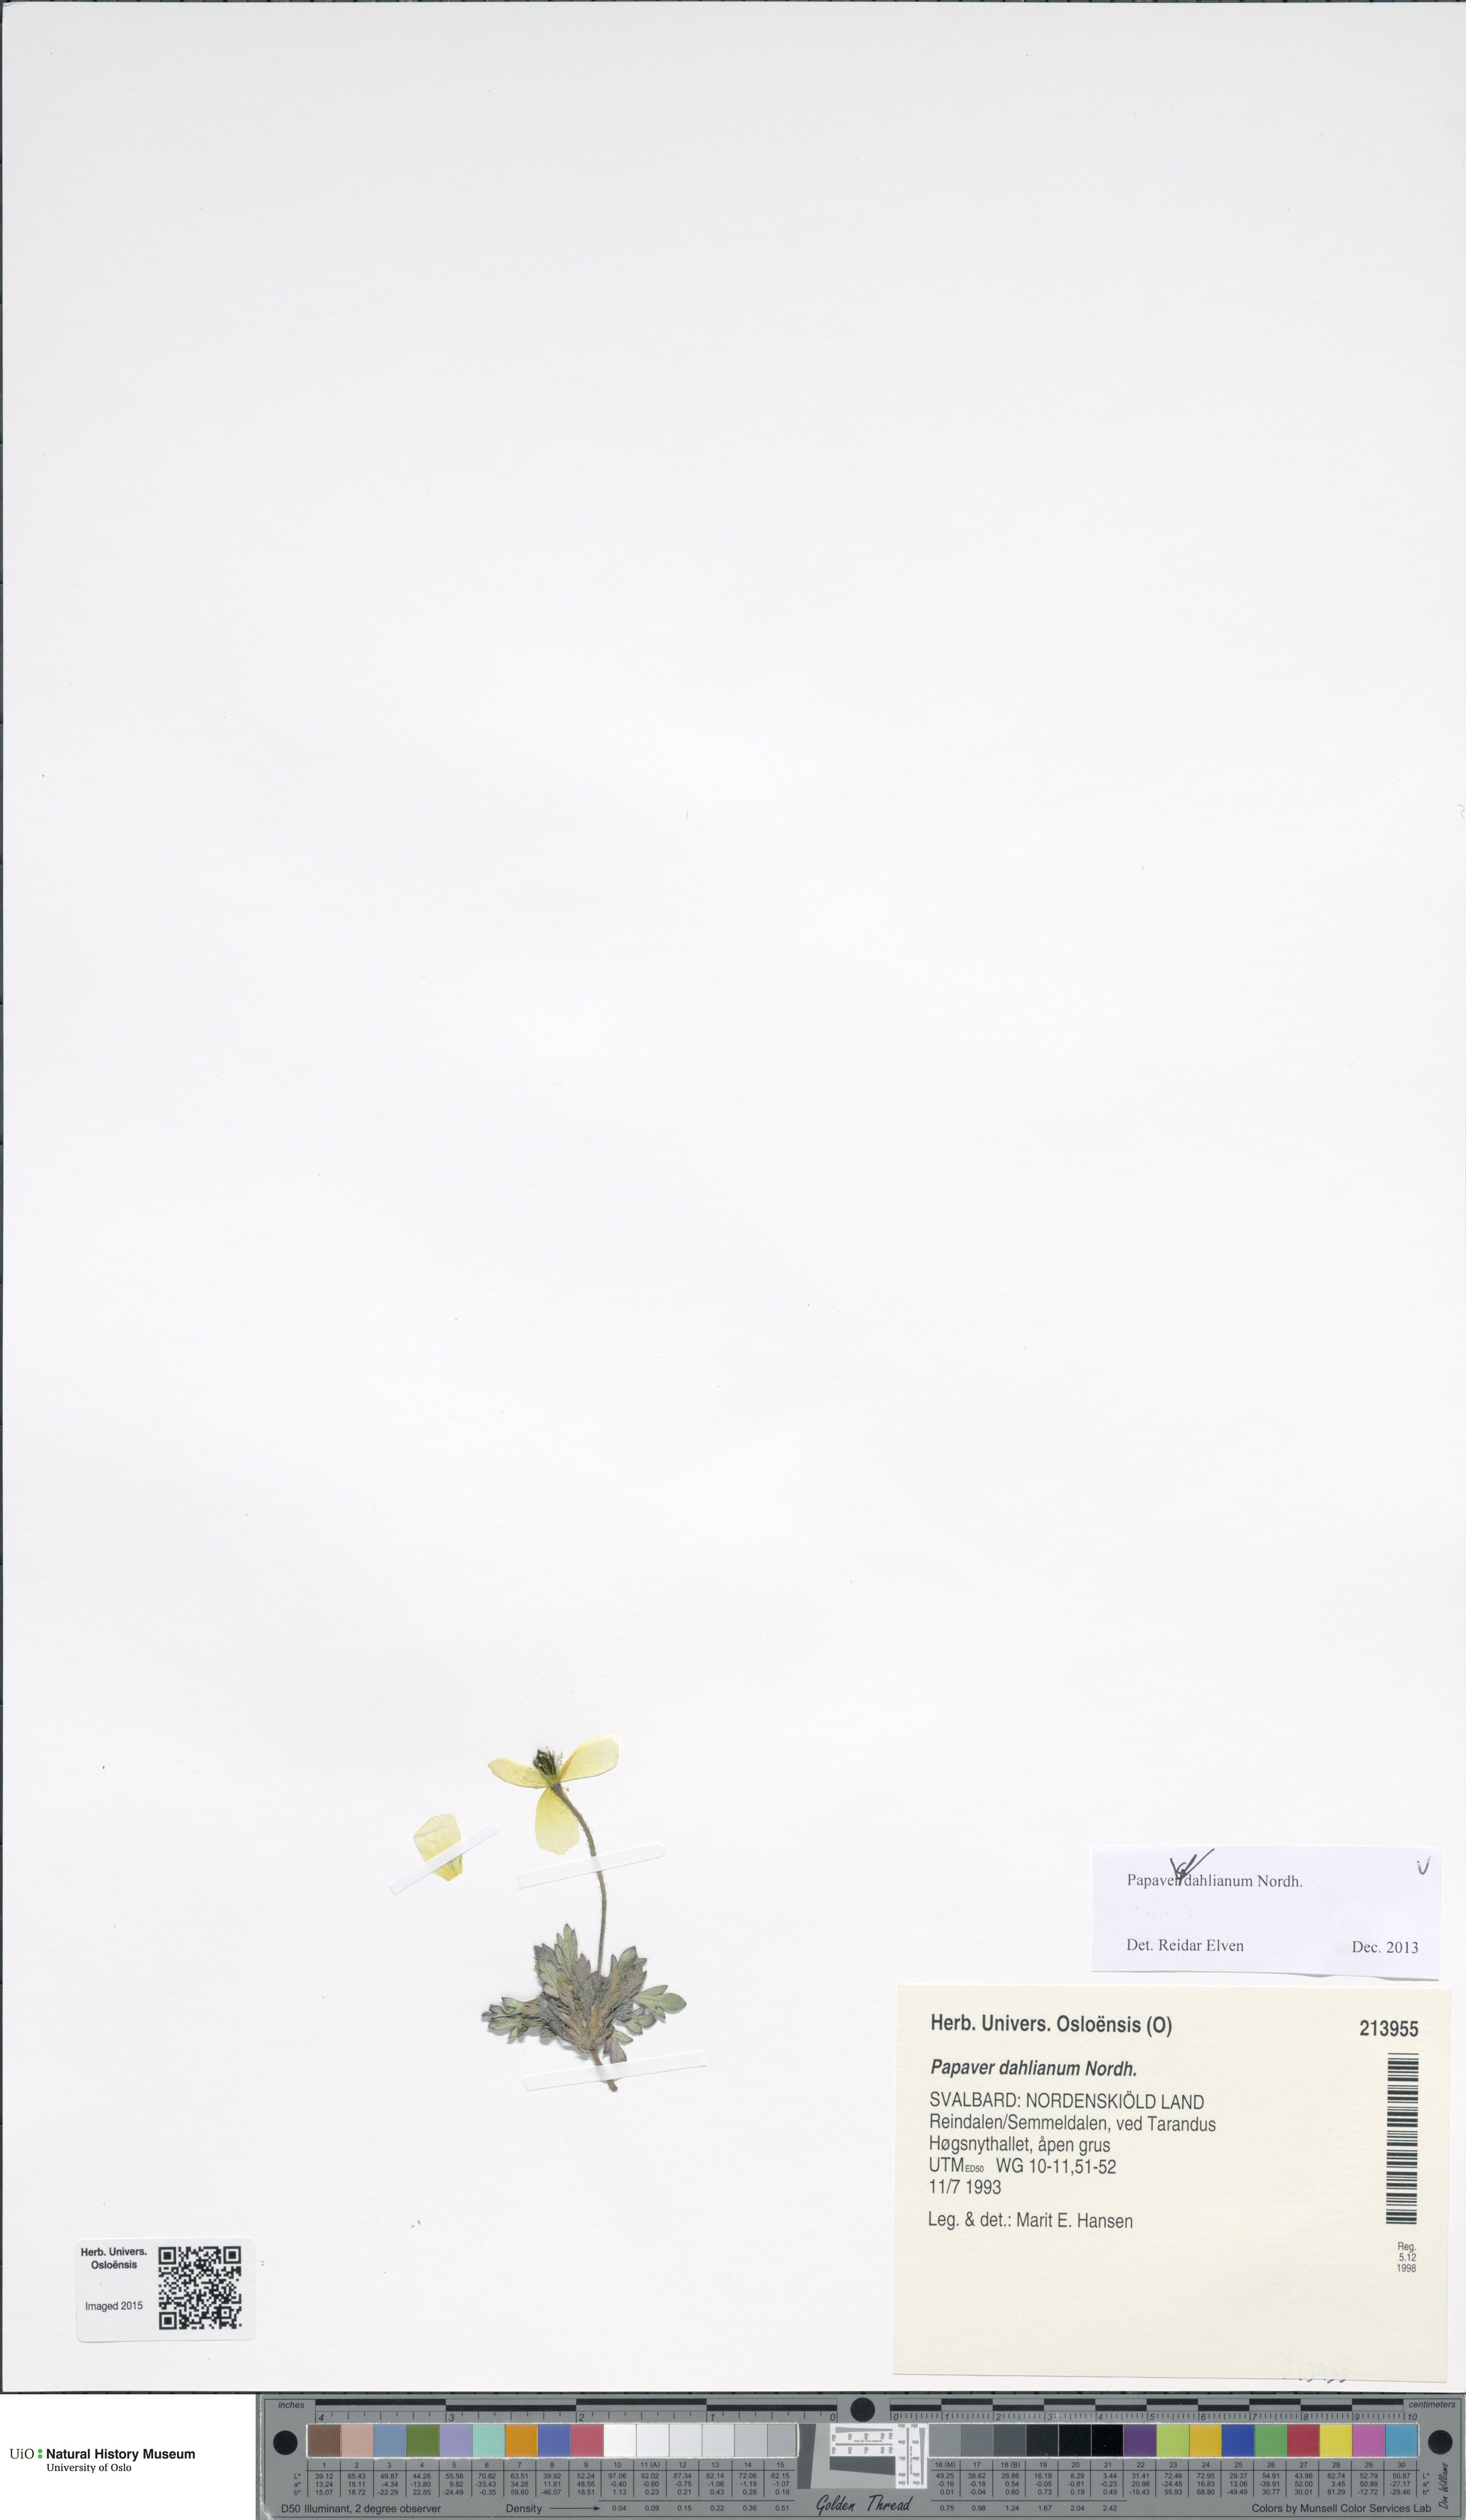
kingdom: Plantae
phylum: Tracheophyta
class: Magnoliopsida
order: Ranunculales
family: Papaveraceae
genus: Papaver
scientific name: Papaver radicatum
